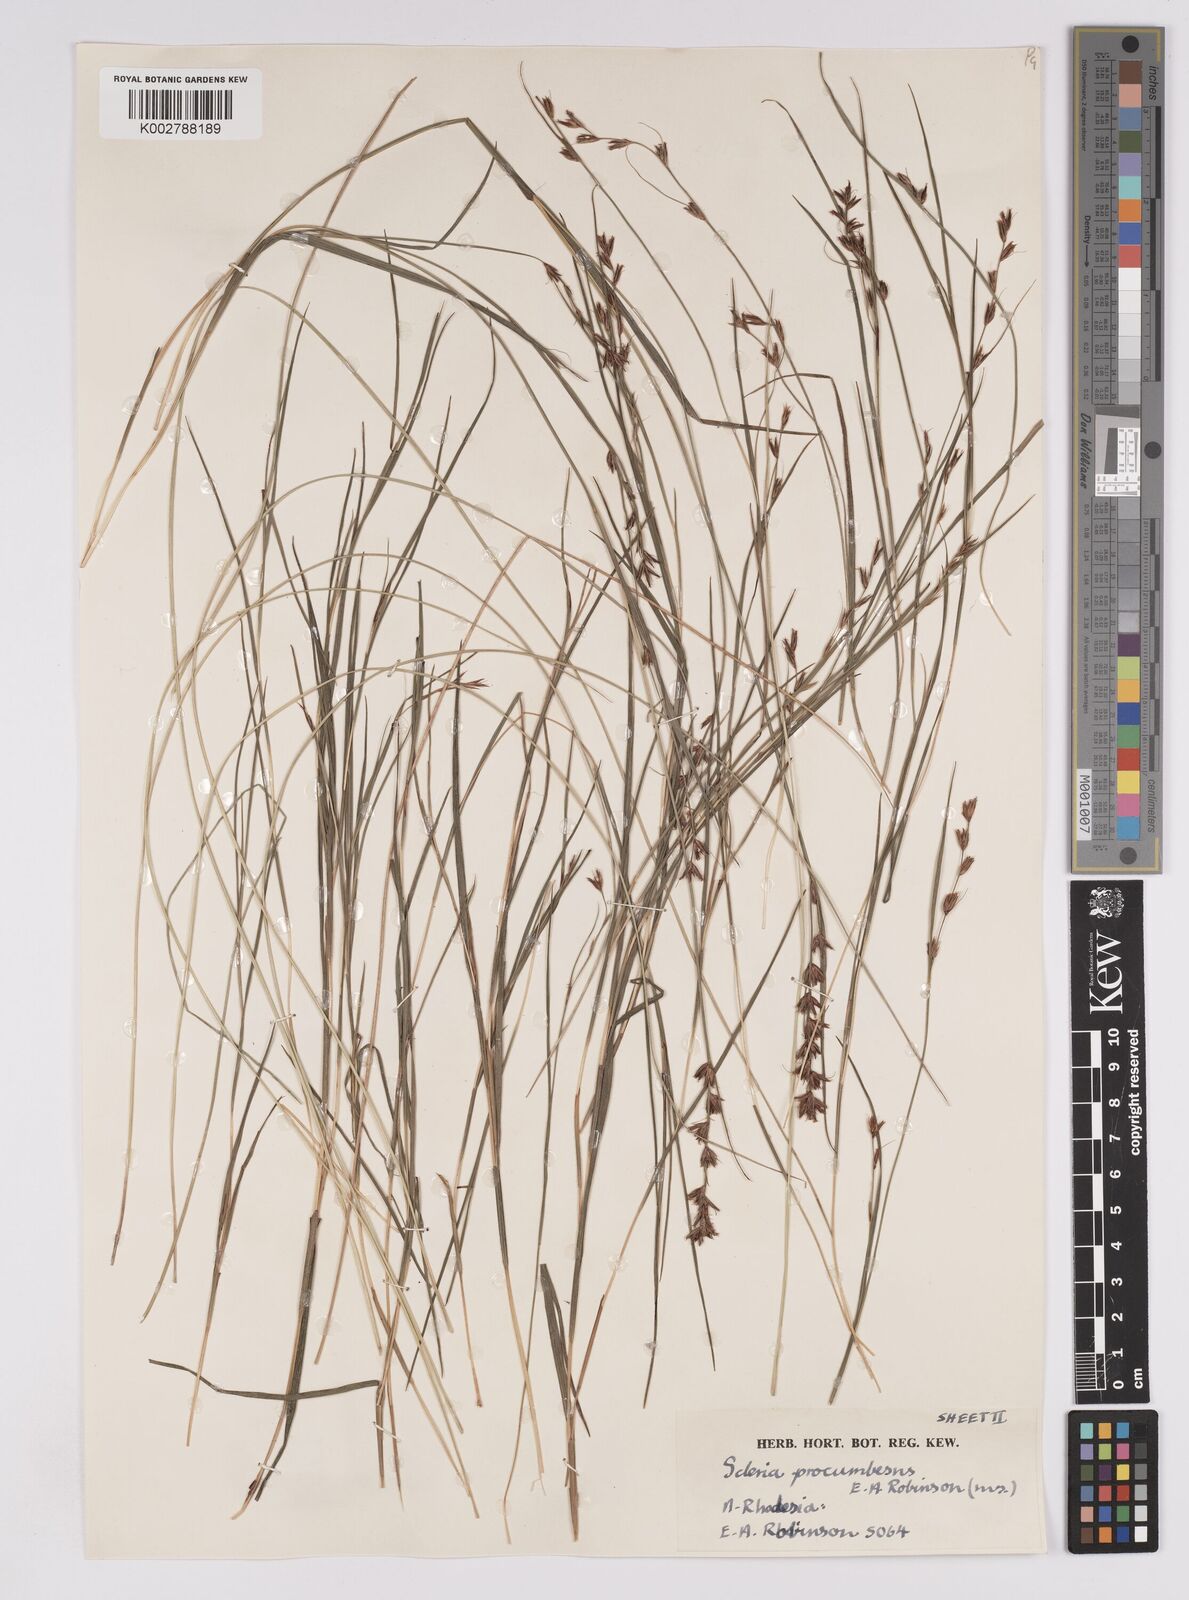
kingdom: Plantae
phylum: Tracheophyta
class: Liliopsida
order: Poales
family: Cyperaceae
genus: Scleria
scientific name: Scleria procumbens
